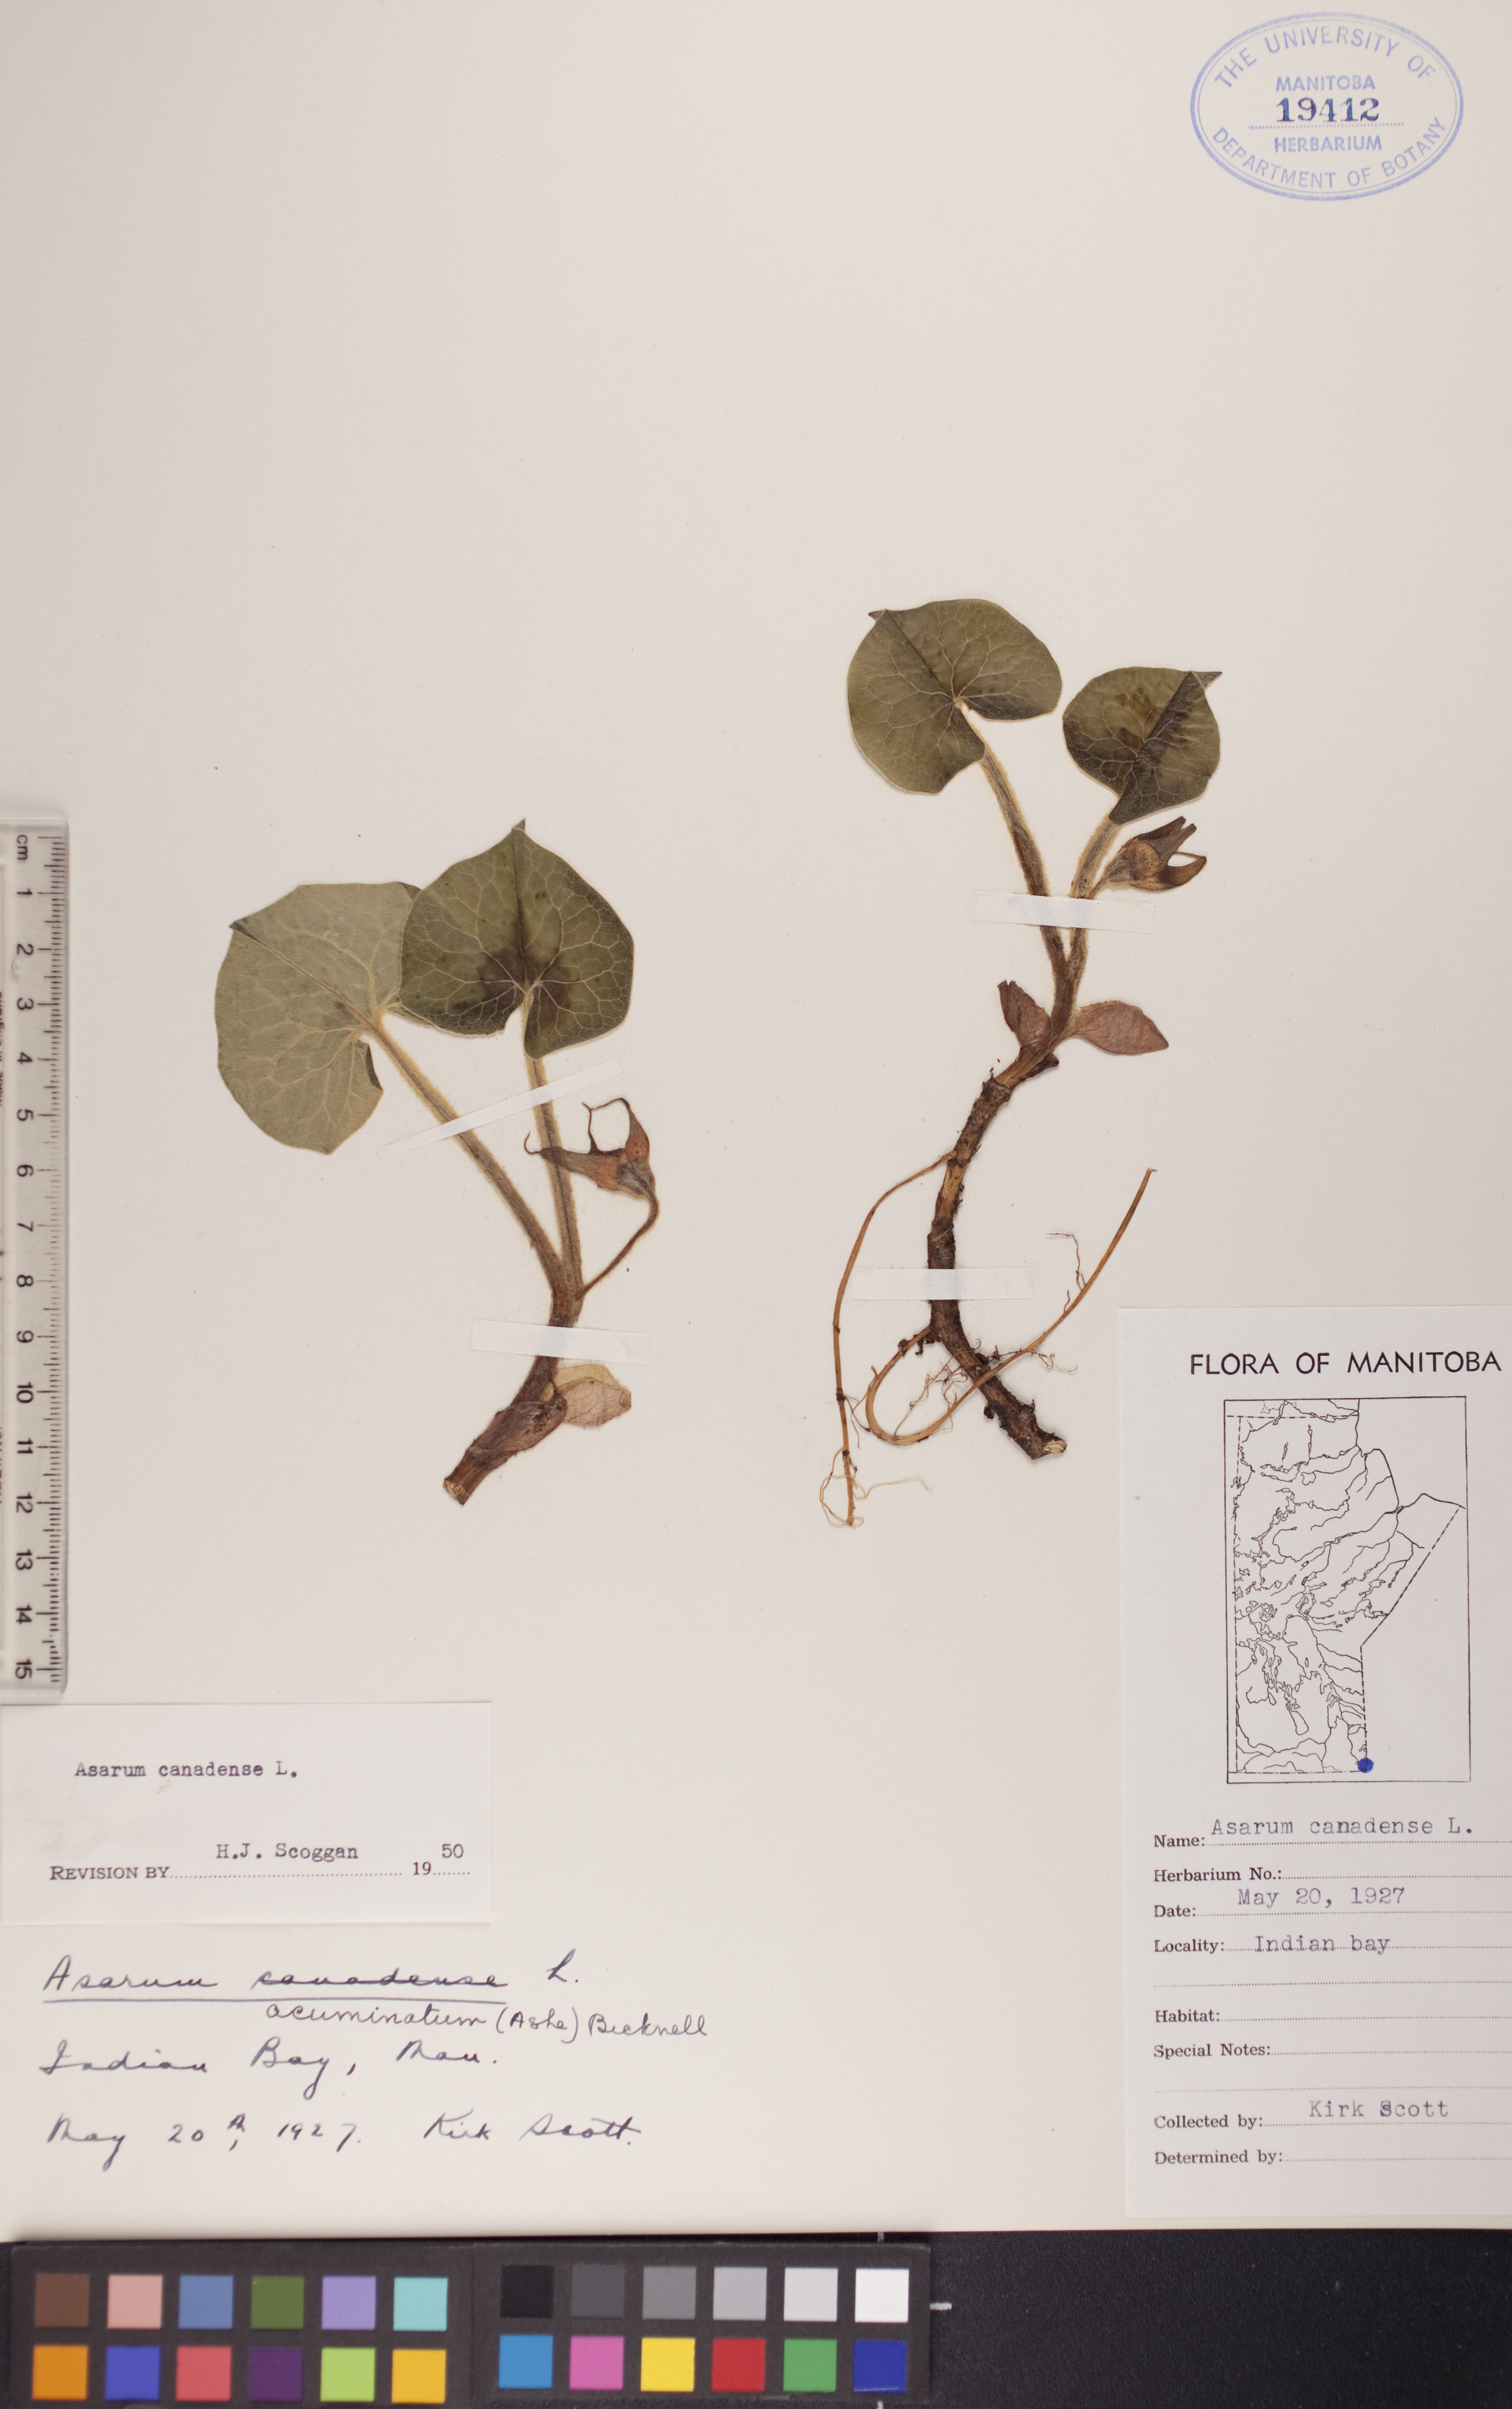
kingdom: Plantae
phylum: Tracheophyta
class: Magnoliopsida
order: Piperales
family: Aristolochiaceae
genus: Asarum
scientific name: Asarum canadense
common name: Wild ginger
